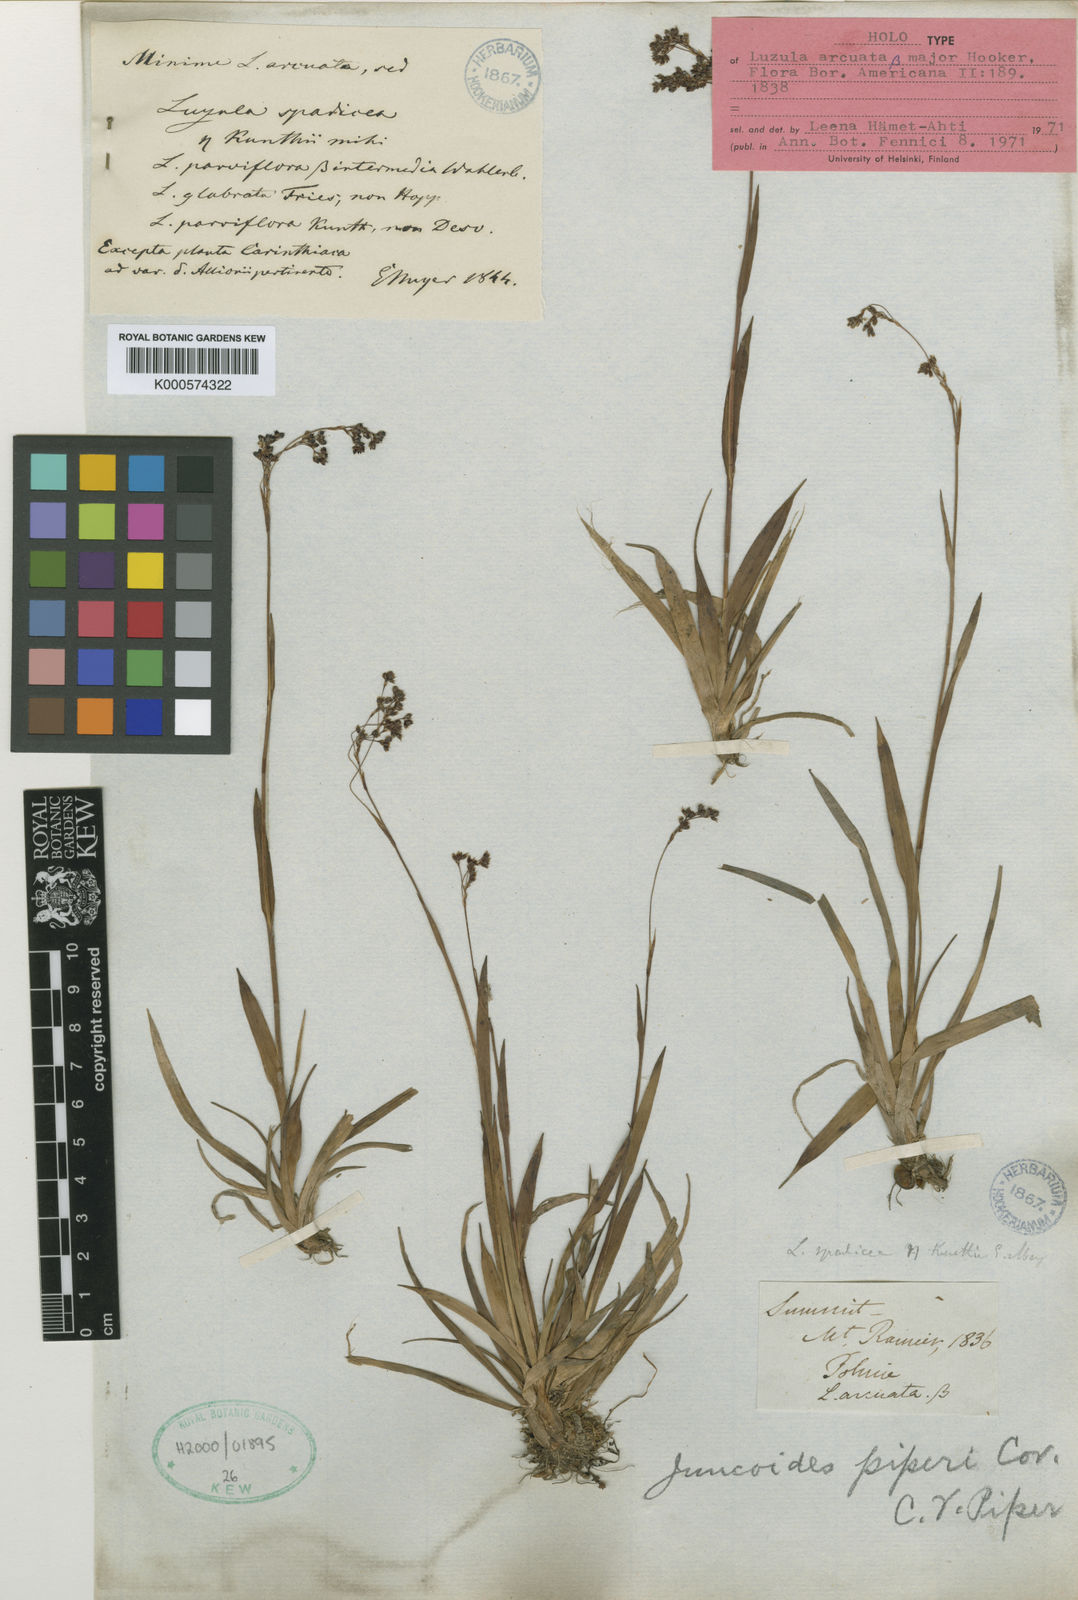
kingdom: Plantae
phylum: Tracheophyta
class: Liliopsida
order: Poales
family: Juncaceae
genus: Luzula
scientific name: Luzula
